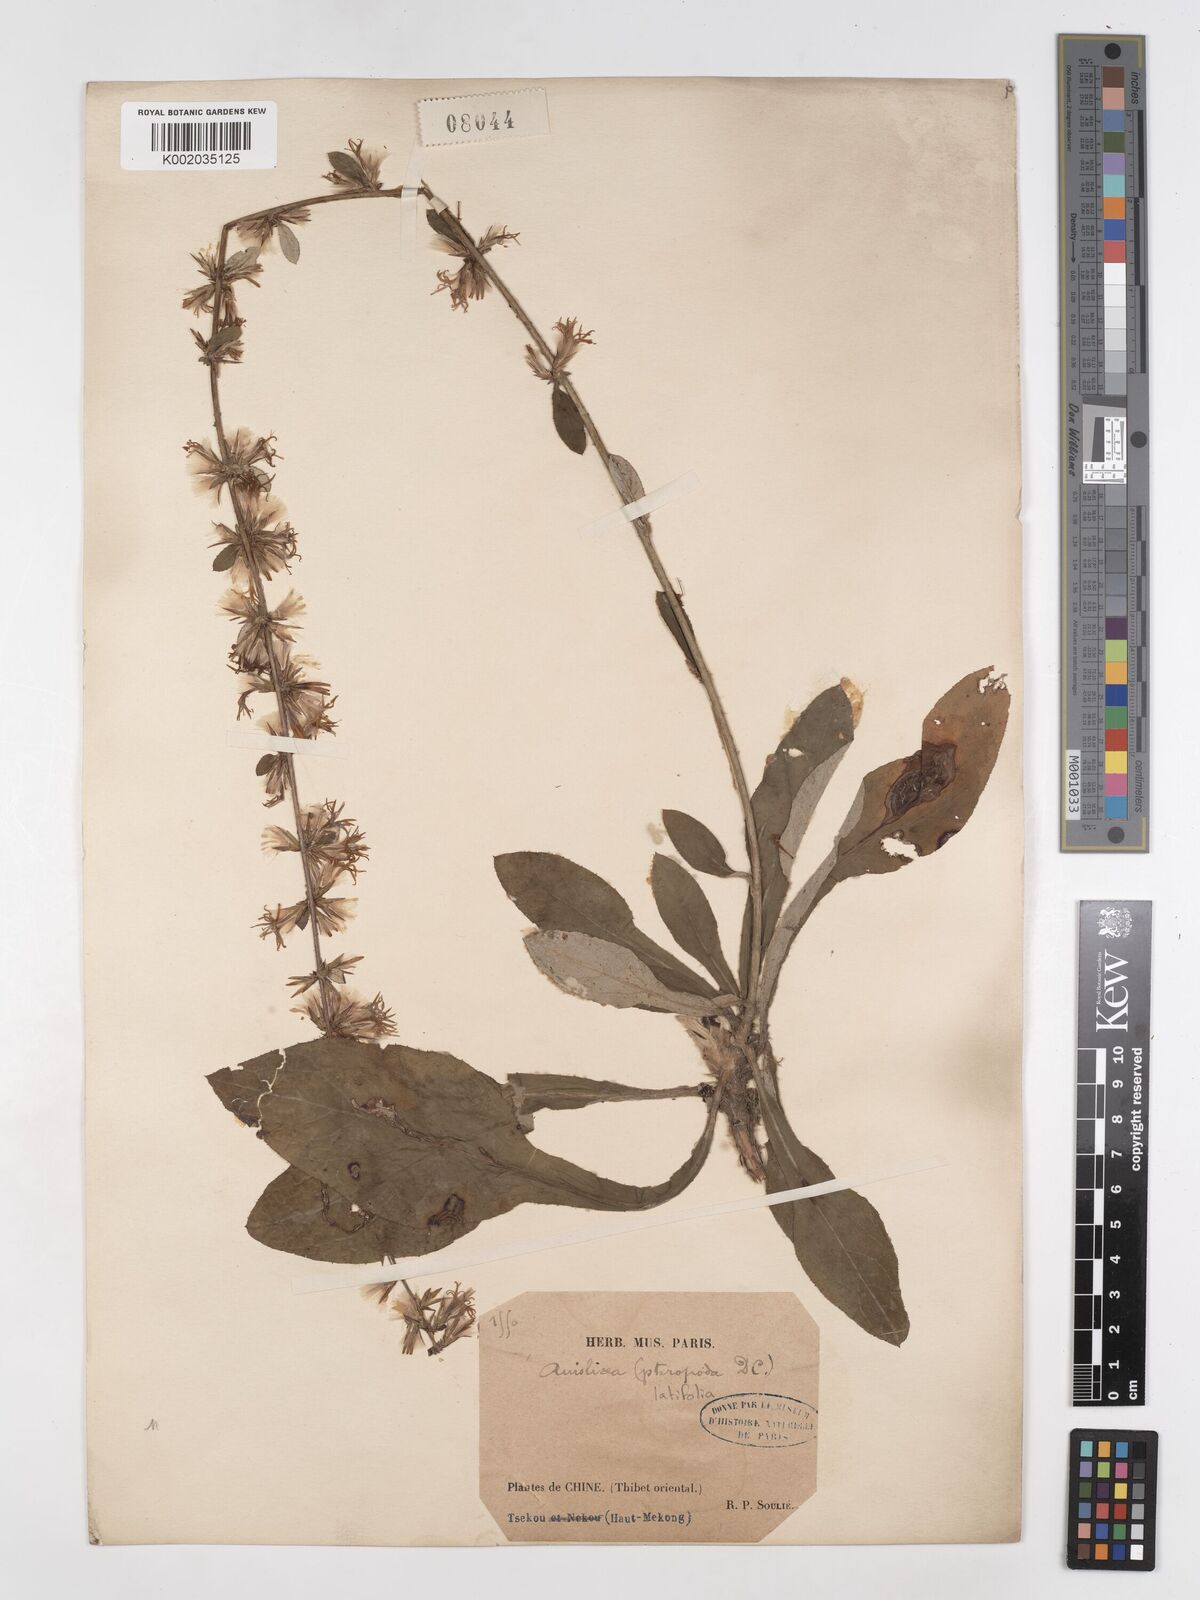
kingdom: Plantae
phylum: Tracheophyta
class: Magnoliopsida
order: Asterales
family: Asteraceae
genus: Ainsliaea
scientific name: Ainsliaea latifolia
